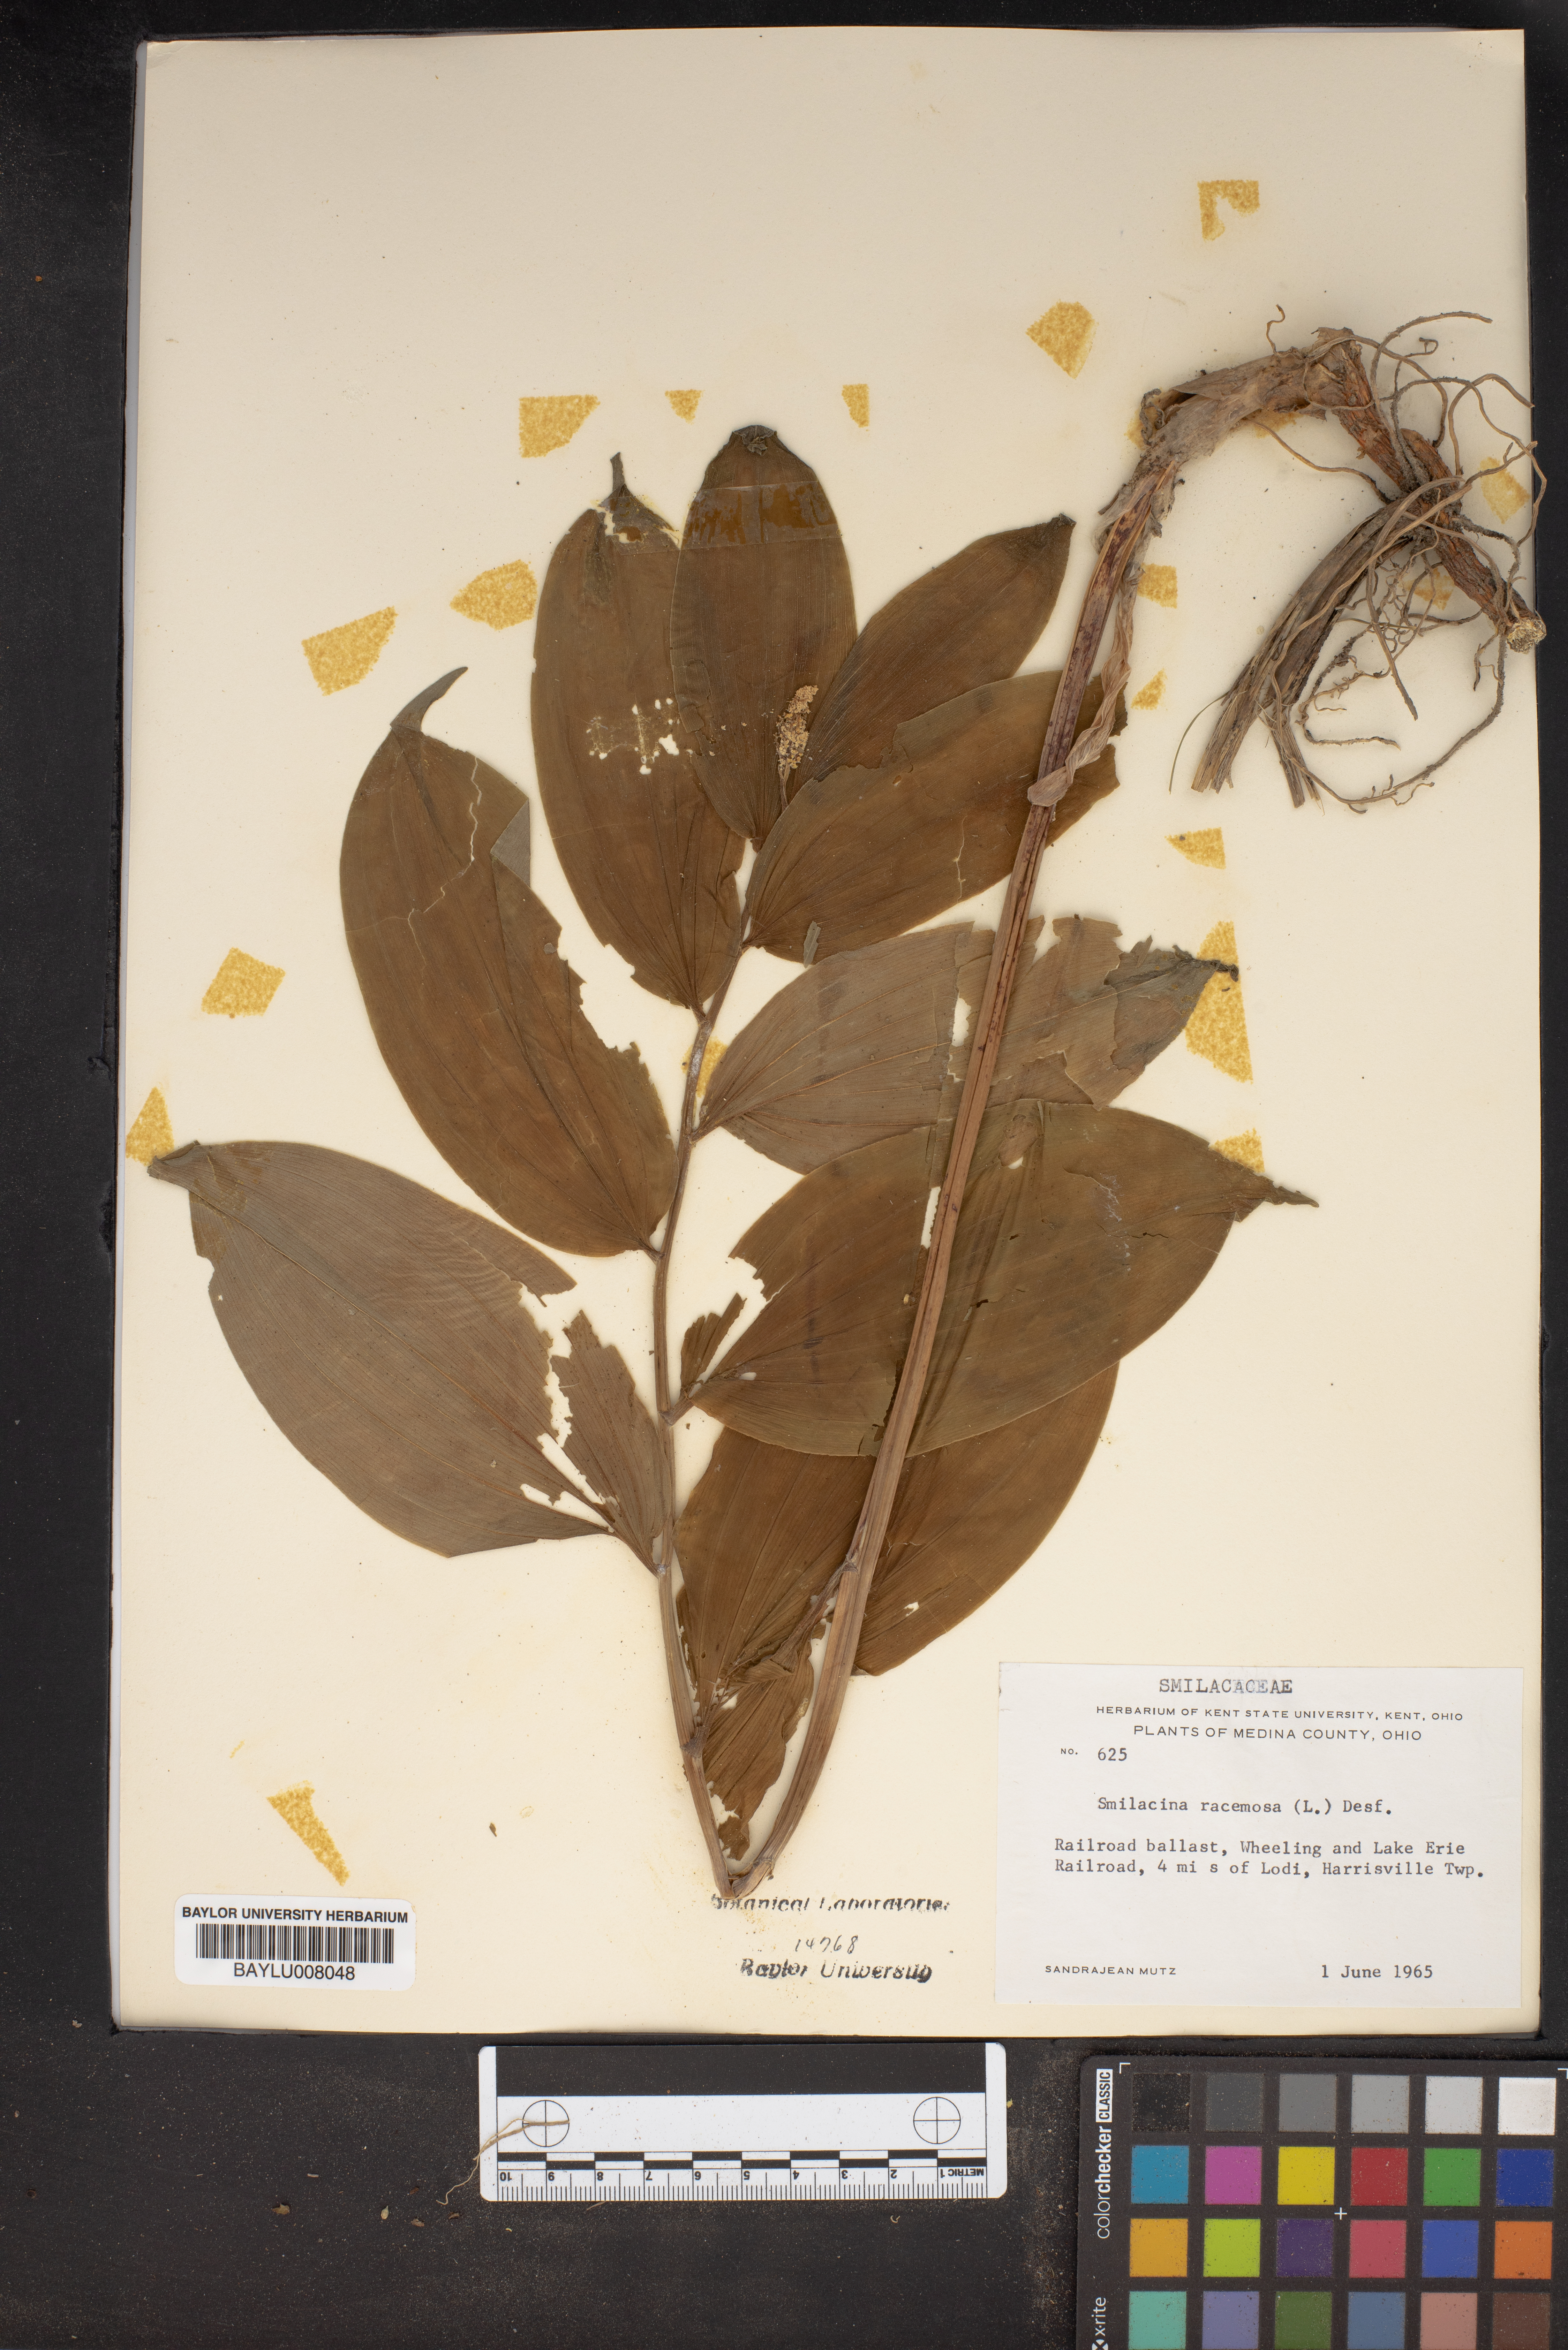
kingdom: Plantae
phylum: Tracheophyta
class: Liliopsida
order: Asparagales
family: Asparagaceae
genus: Maianthemum
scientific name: Maianthemum racemosum
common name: False spikenard
